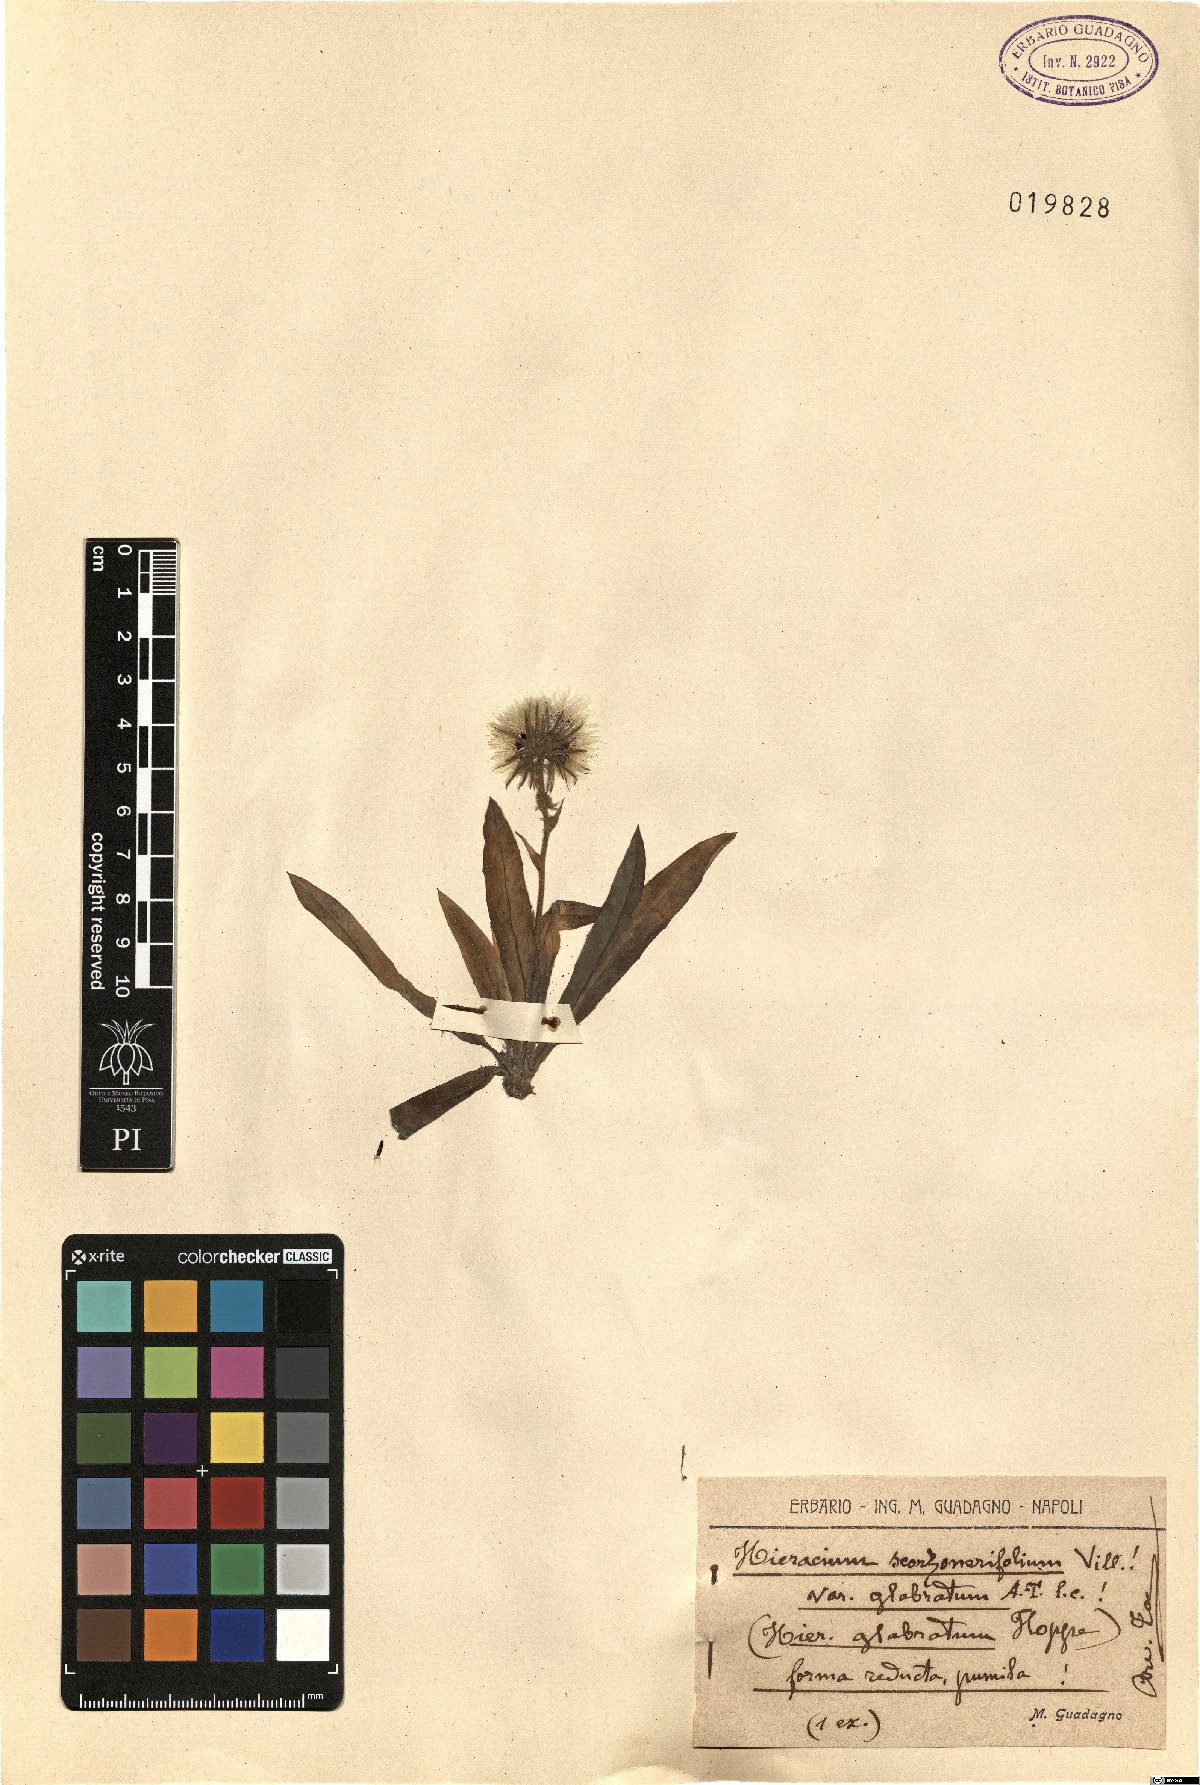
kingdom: Plantae
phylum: Tracheophyta
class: Magnoliopsida
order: Asterales
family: Asteraceae
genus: Hieracium
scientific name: Hieracium scorzonerifolium
